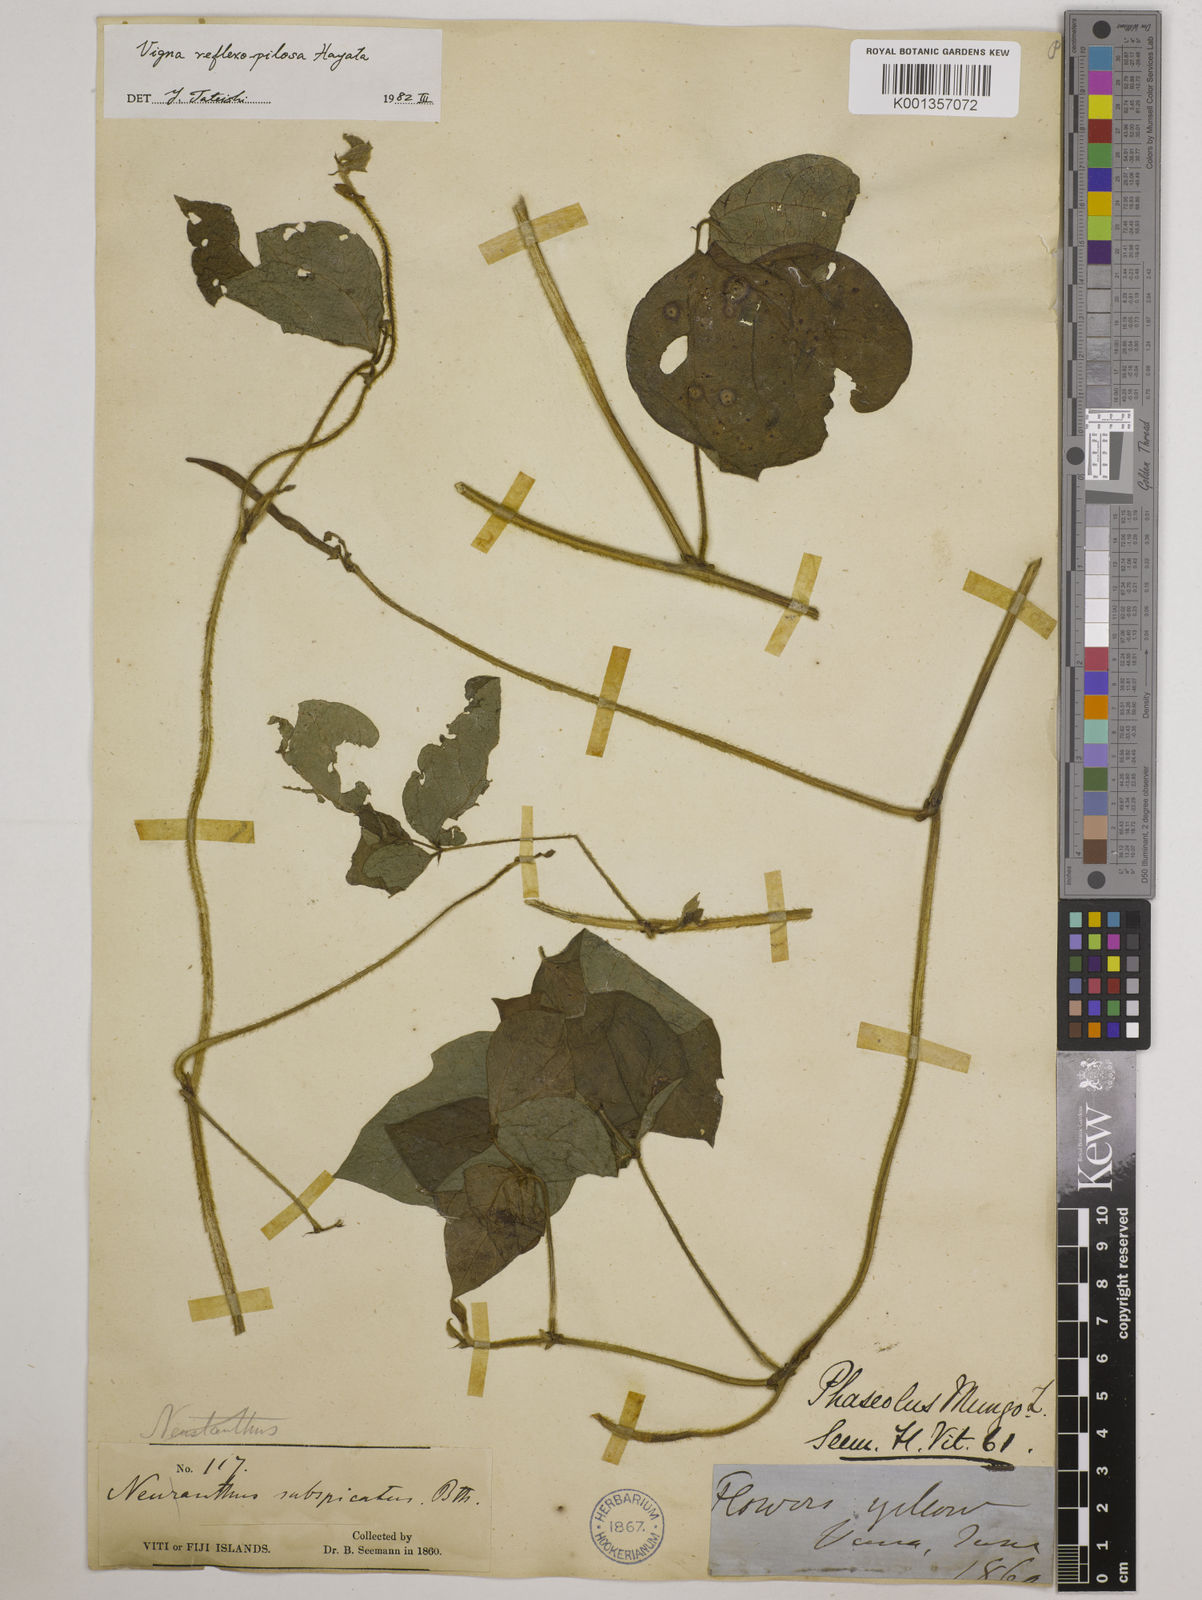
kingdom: Plantae
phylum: Tracheophyta
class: Magnoliopsida
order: Fabales
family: Fabaceae
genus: Vigna
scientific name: Vigna reflexopilosa
